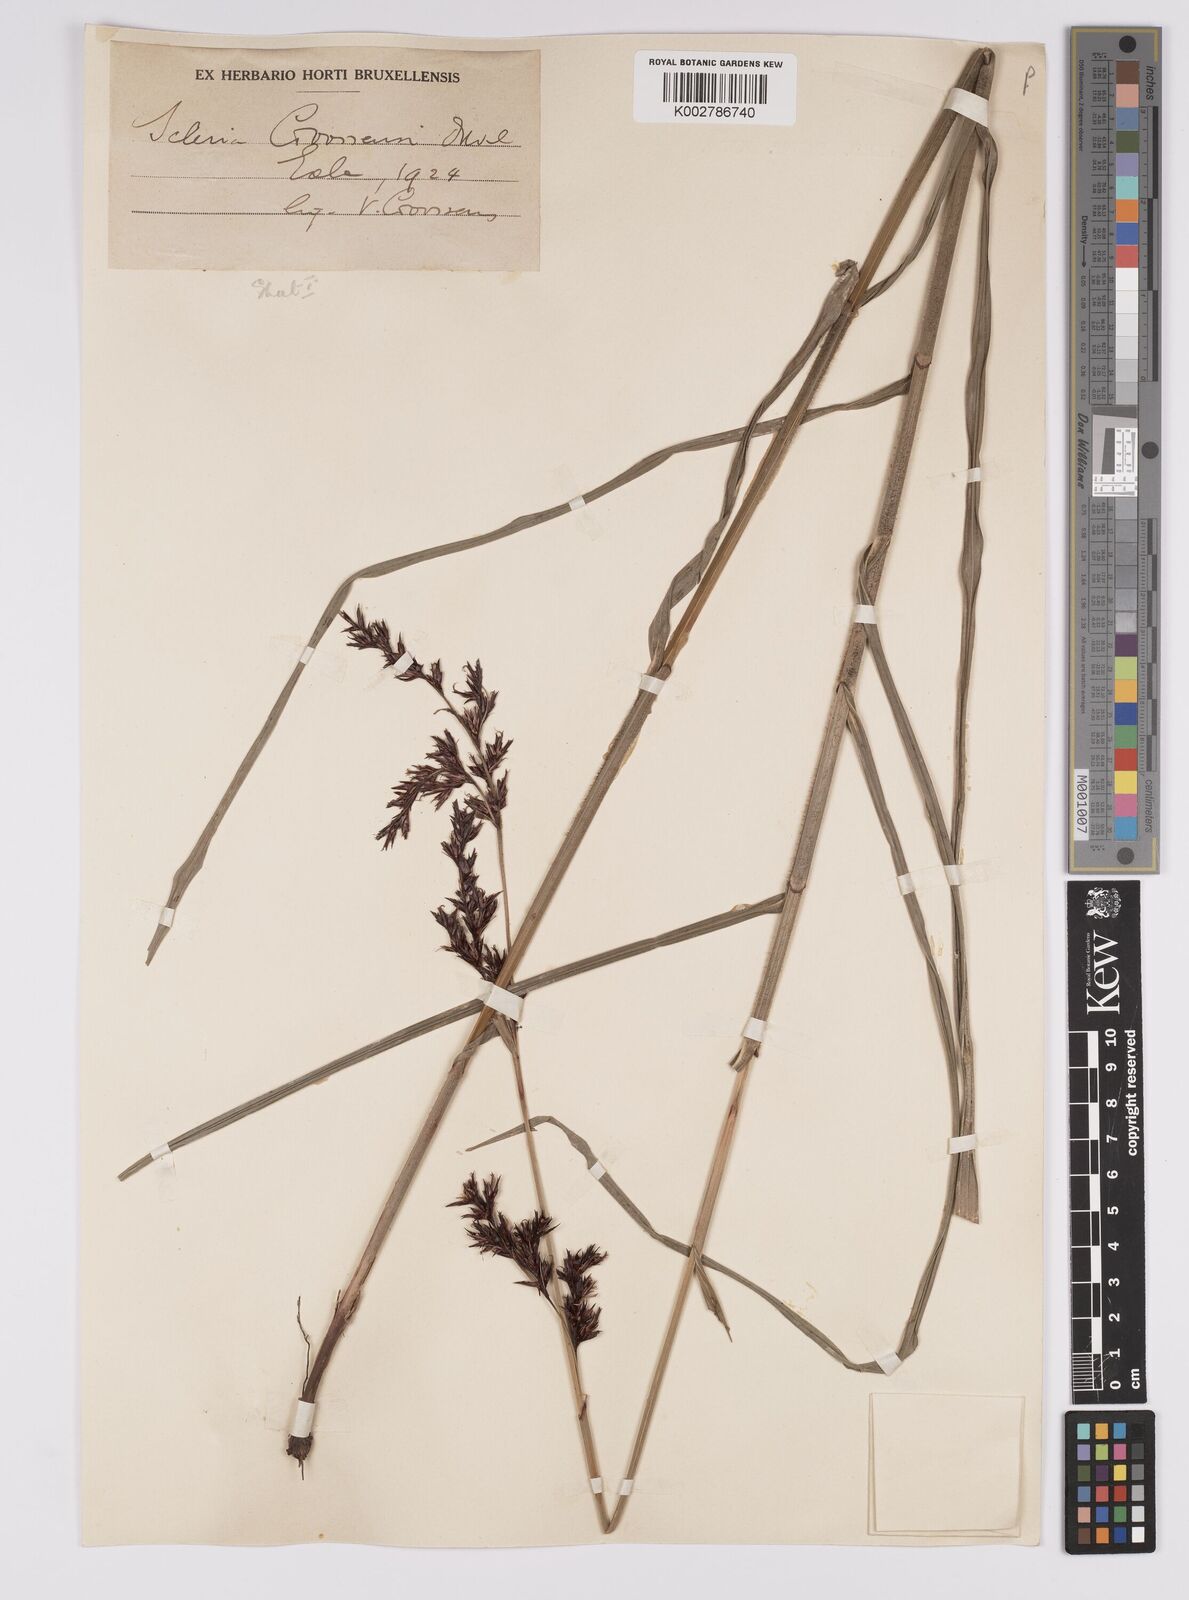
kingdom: Plantae
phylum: Tracheophyta
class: Liliopsida
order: Poales
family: Cyperaceae
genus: Scleria
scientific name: Scleria goossensii
